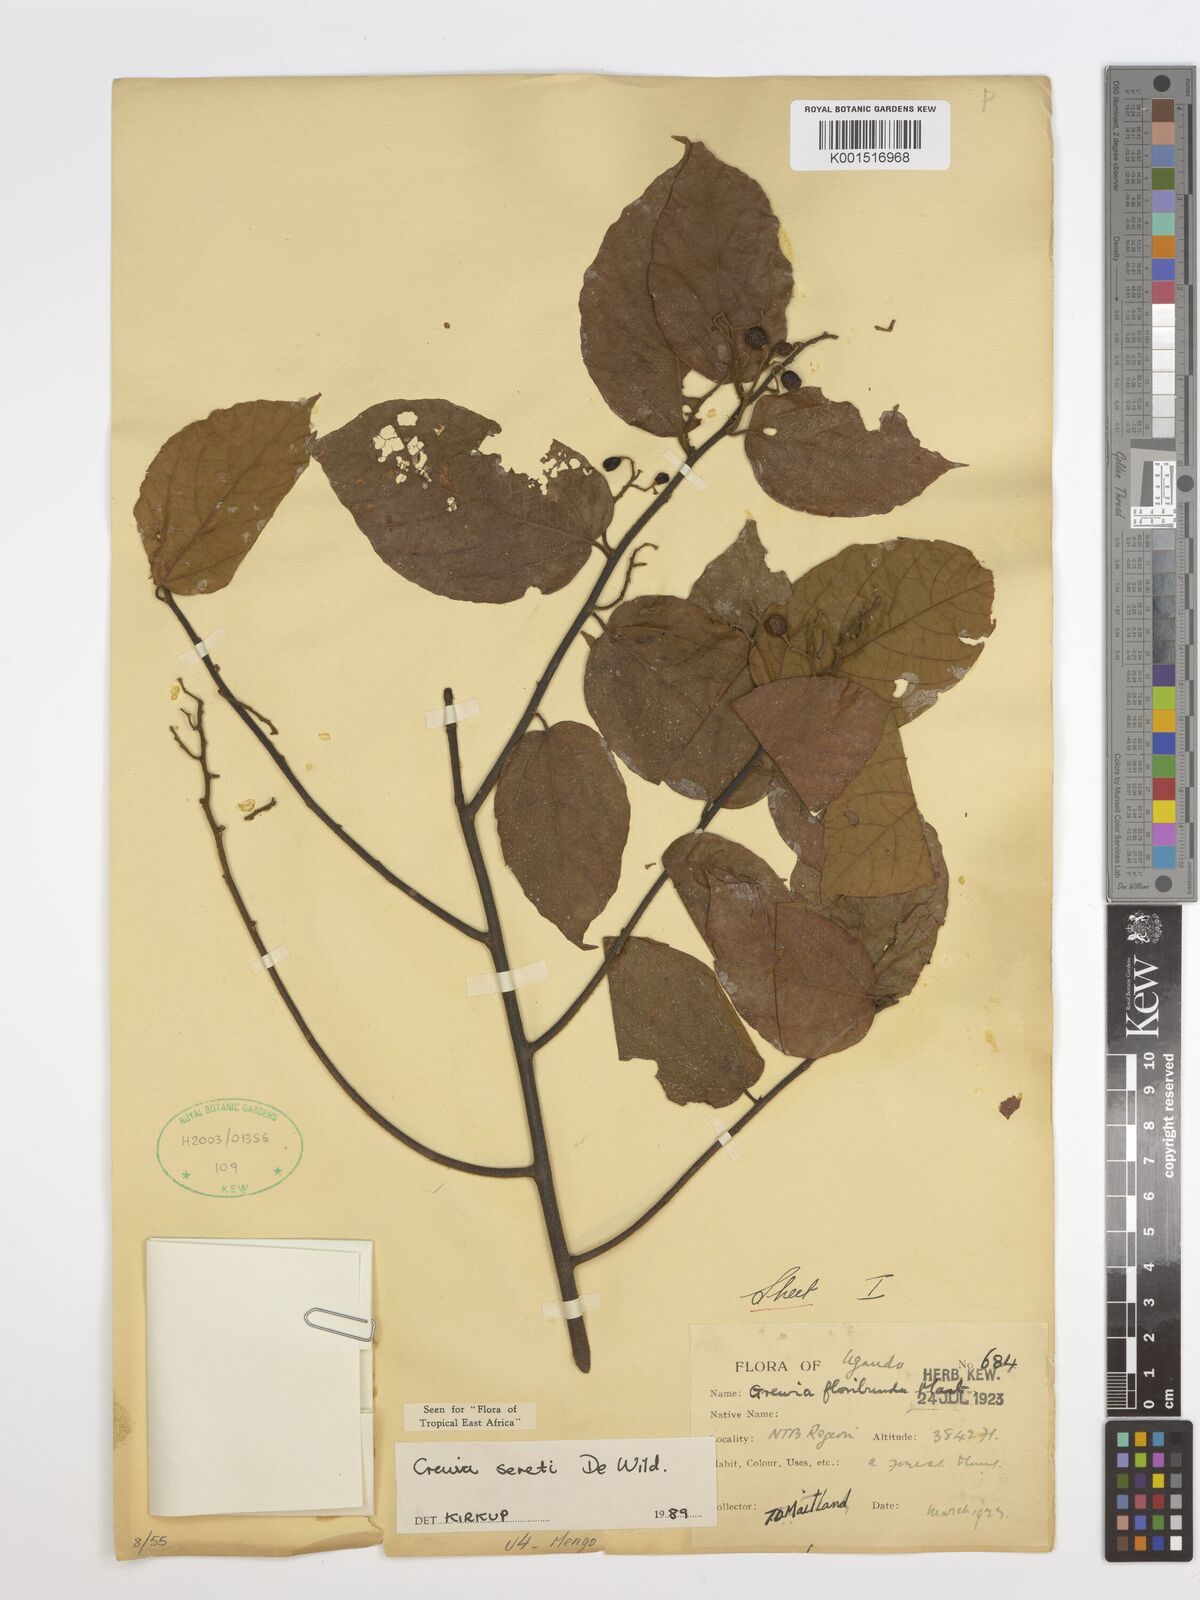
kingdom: Plantae
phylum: Tracheophyta
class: Magnoliopsida
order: Malvales
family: Malvaceae
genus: Microcos
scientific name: Microcos seretii
